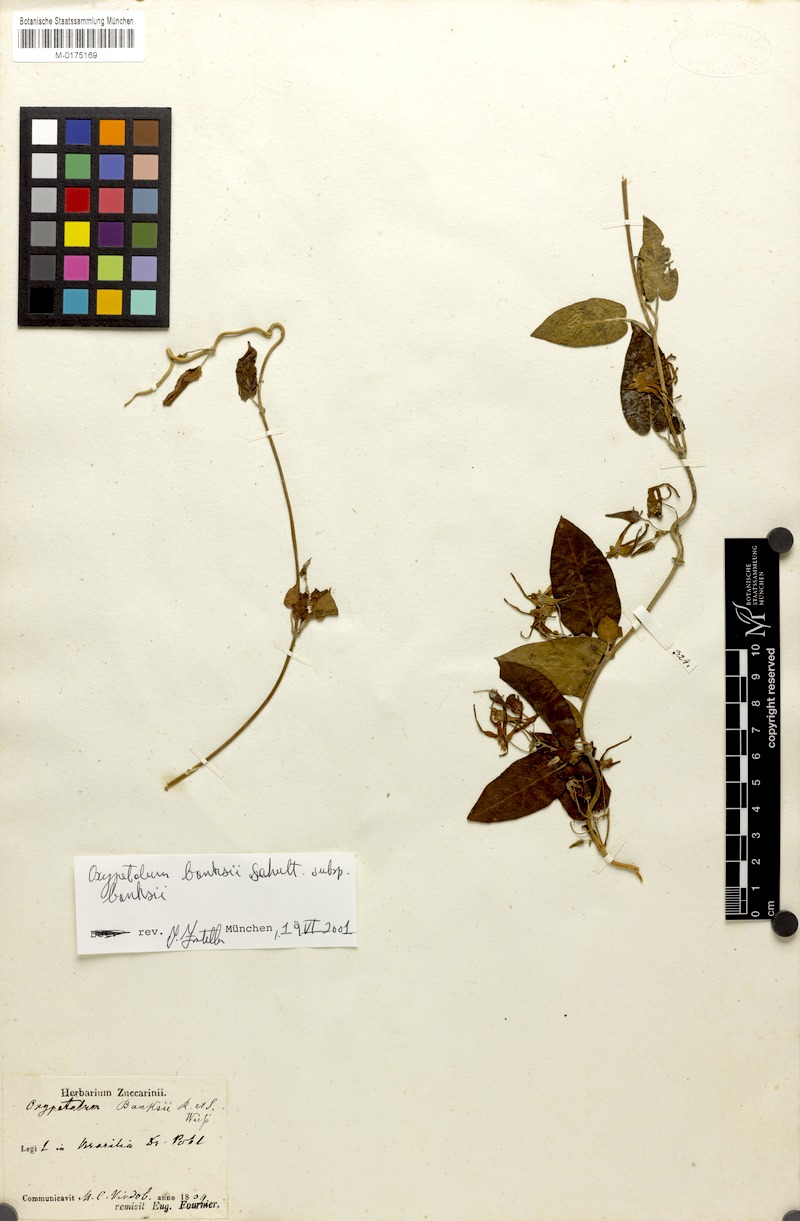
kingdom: Plantae
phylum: Tracheophyta
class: Magnoliopsida
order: Gentianales
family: Apocynaceae
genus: Oxypetalum
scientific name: Oxypetalum banksii
